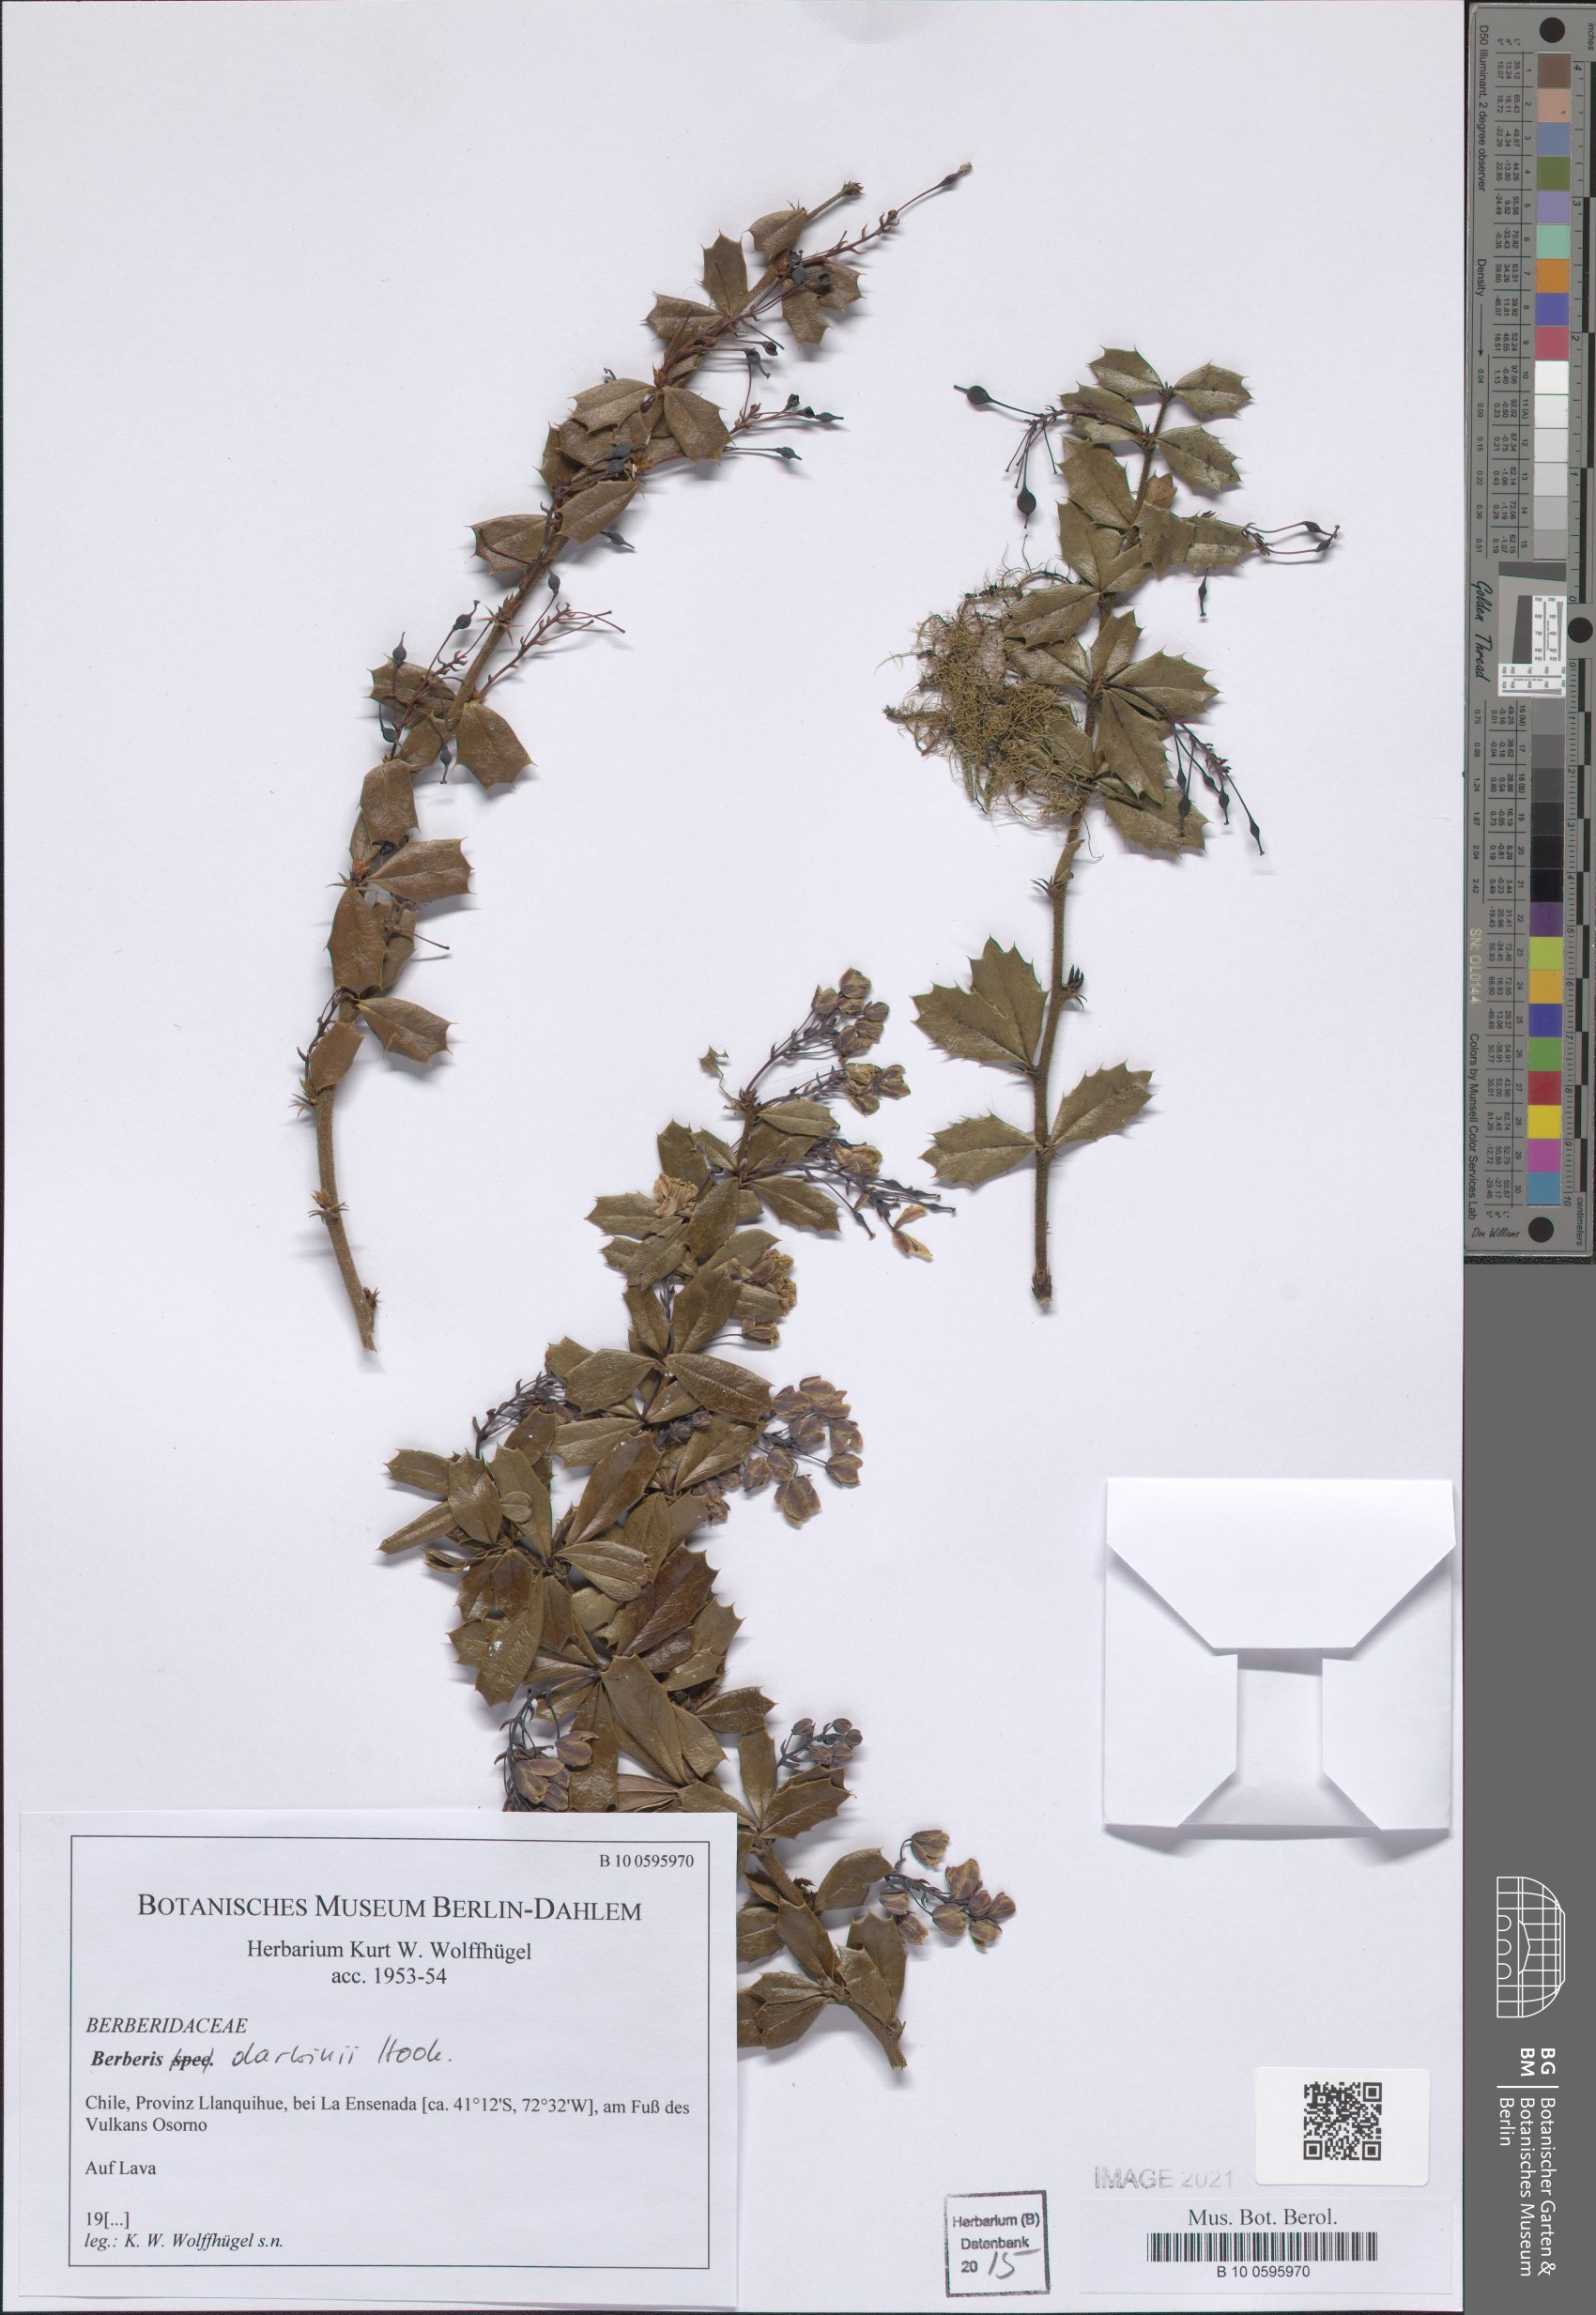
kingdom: Plantae
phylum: Tracheophyta
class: Magnoliopsida
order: Ranunculales
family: Berberidaceae
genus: Berberis
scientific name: Berberis darwinii
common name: Darwin's barberry
